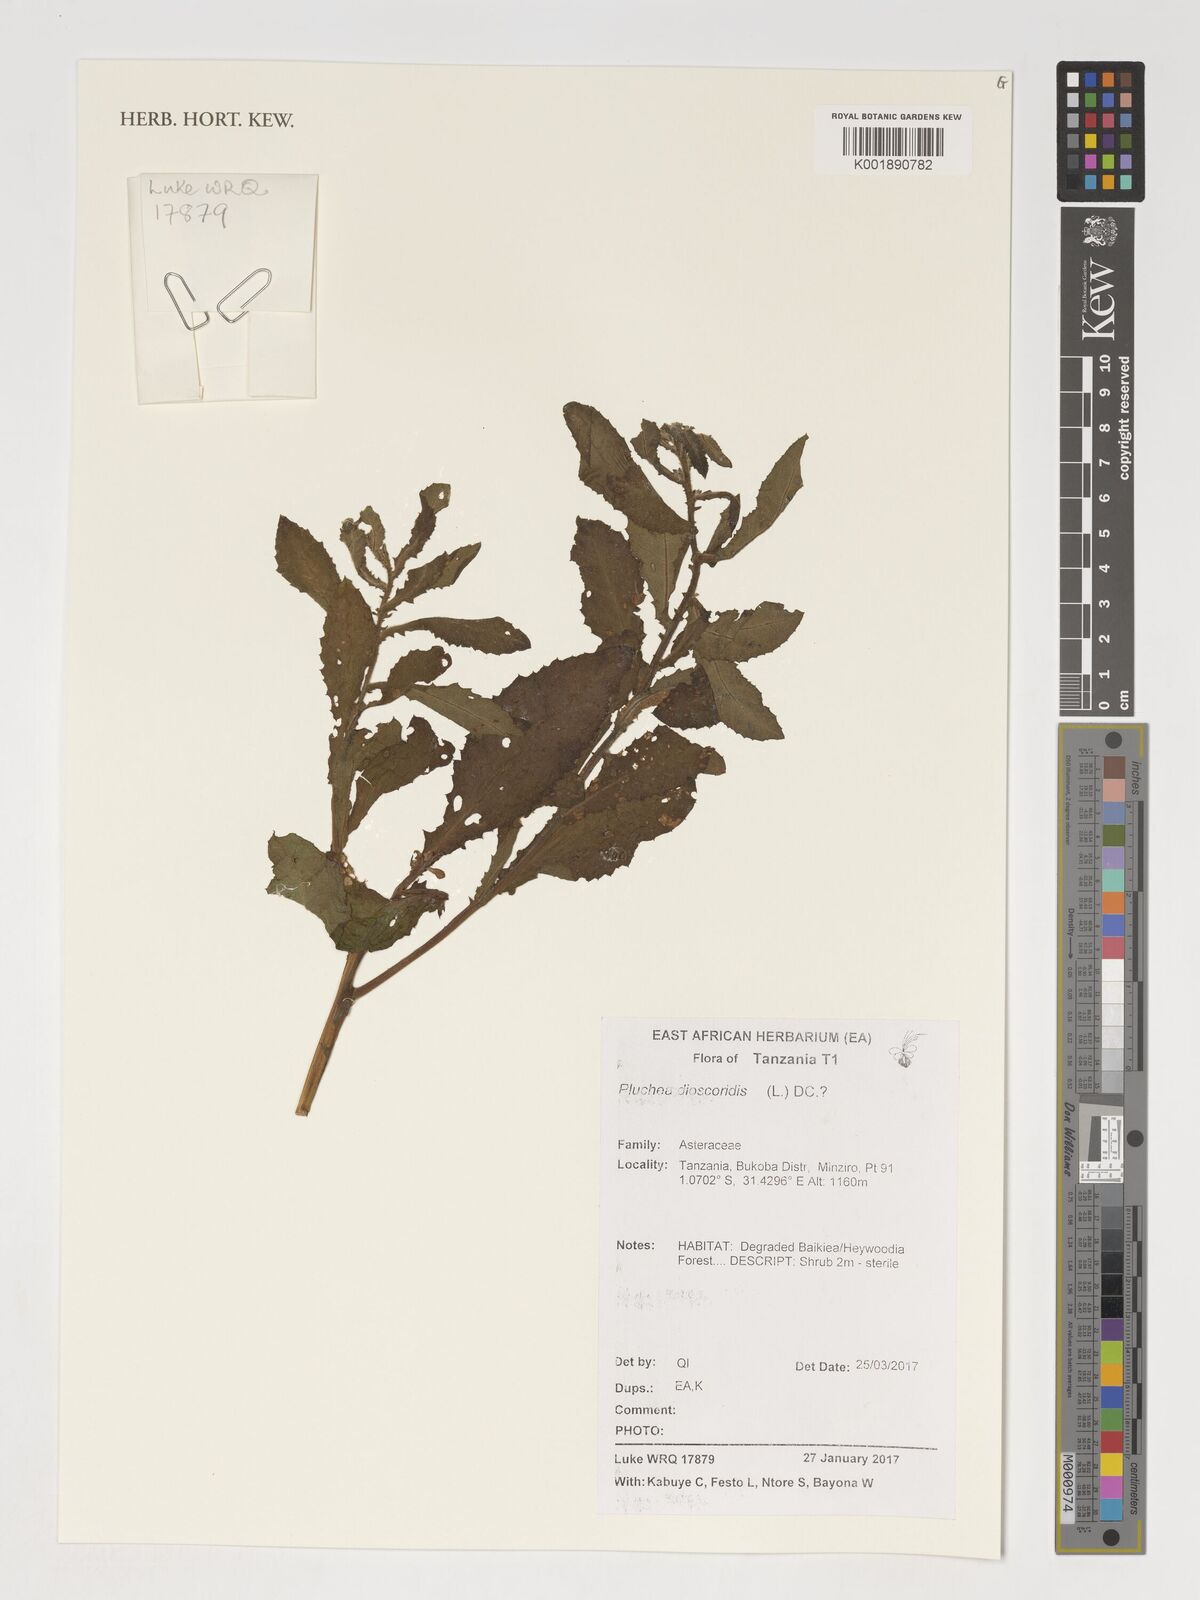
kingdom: Plantae
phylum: Tracheophyta
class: Magnoliopsida
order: Asterales
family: Asteraceae
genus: Pluchea
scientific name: Pluchea dioscoridis
